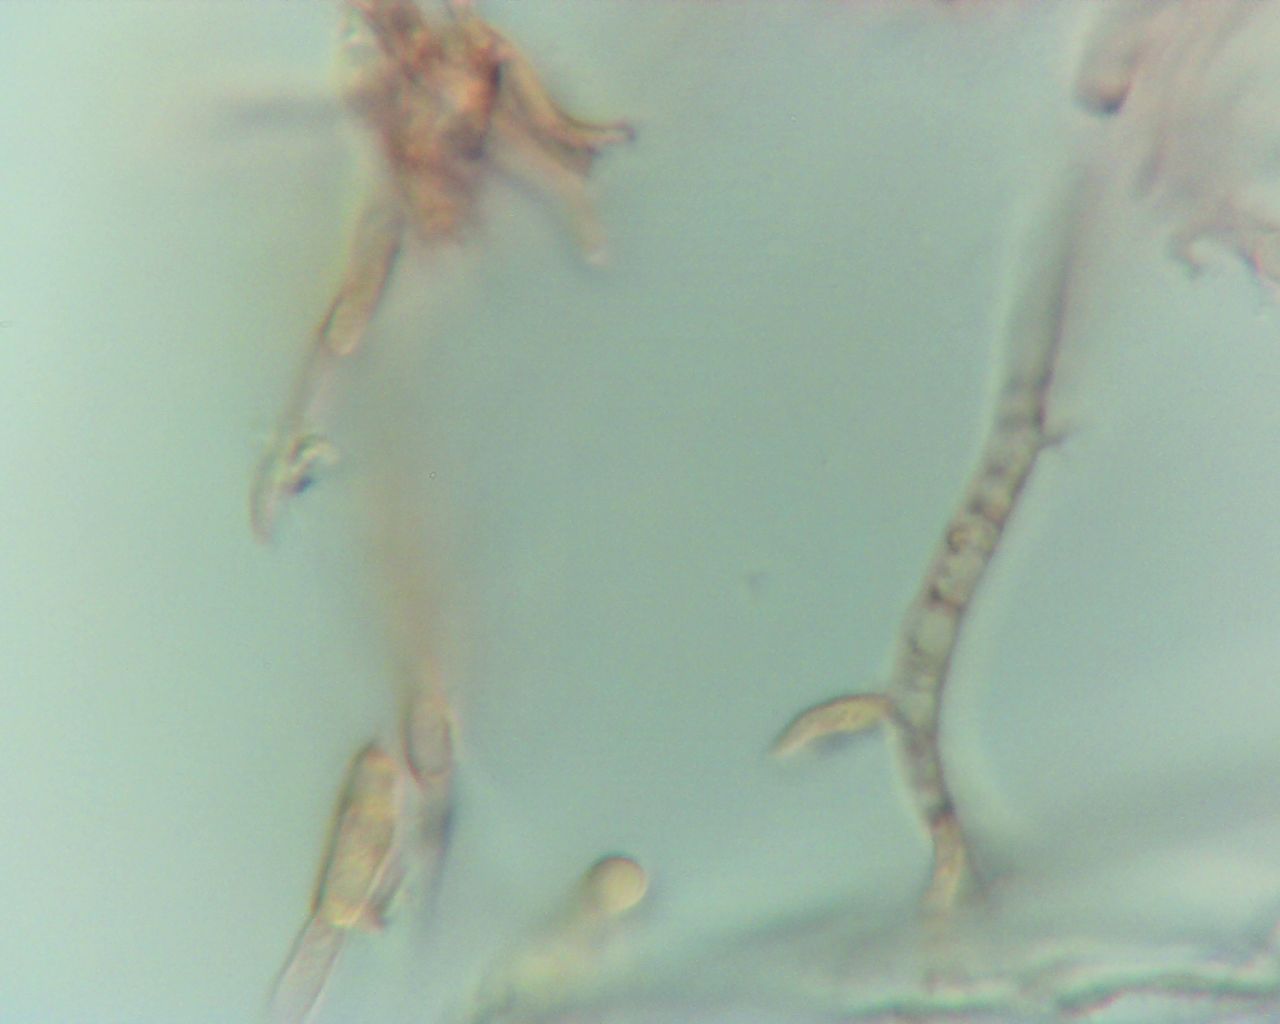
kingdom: Fungi
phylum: Ascomycota
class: Leotiomycetes
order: Helotiales
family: Helotiaceae
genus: Gorgoniceps
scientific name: Gorgoniceps aridula
